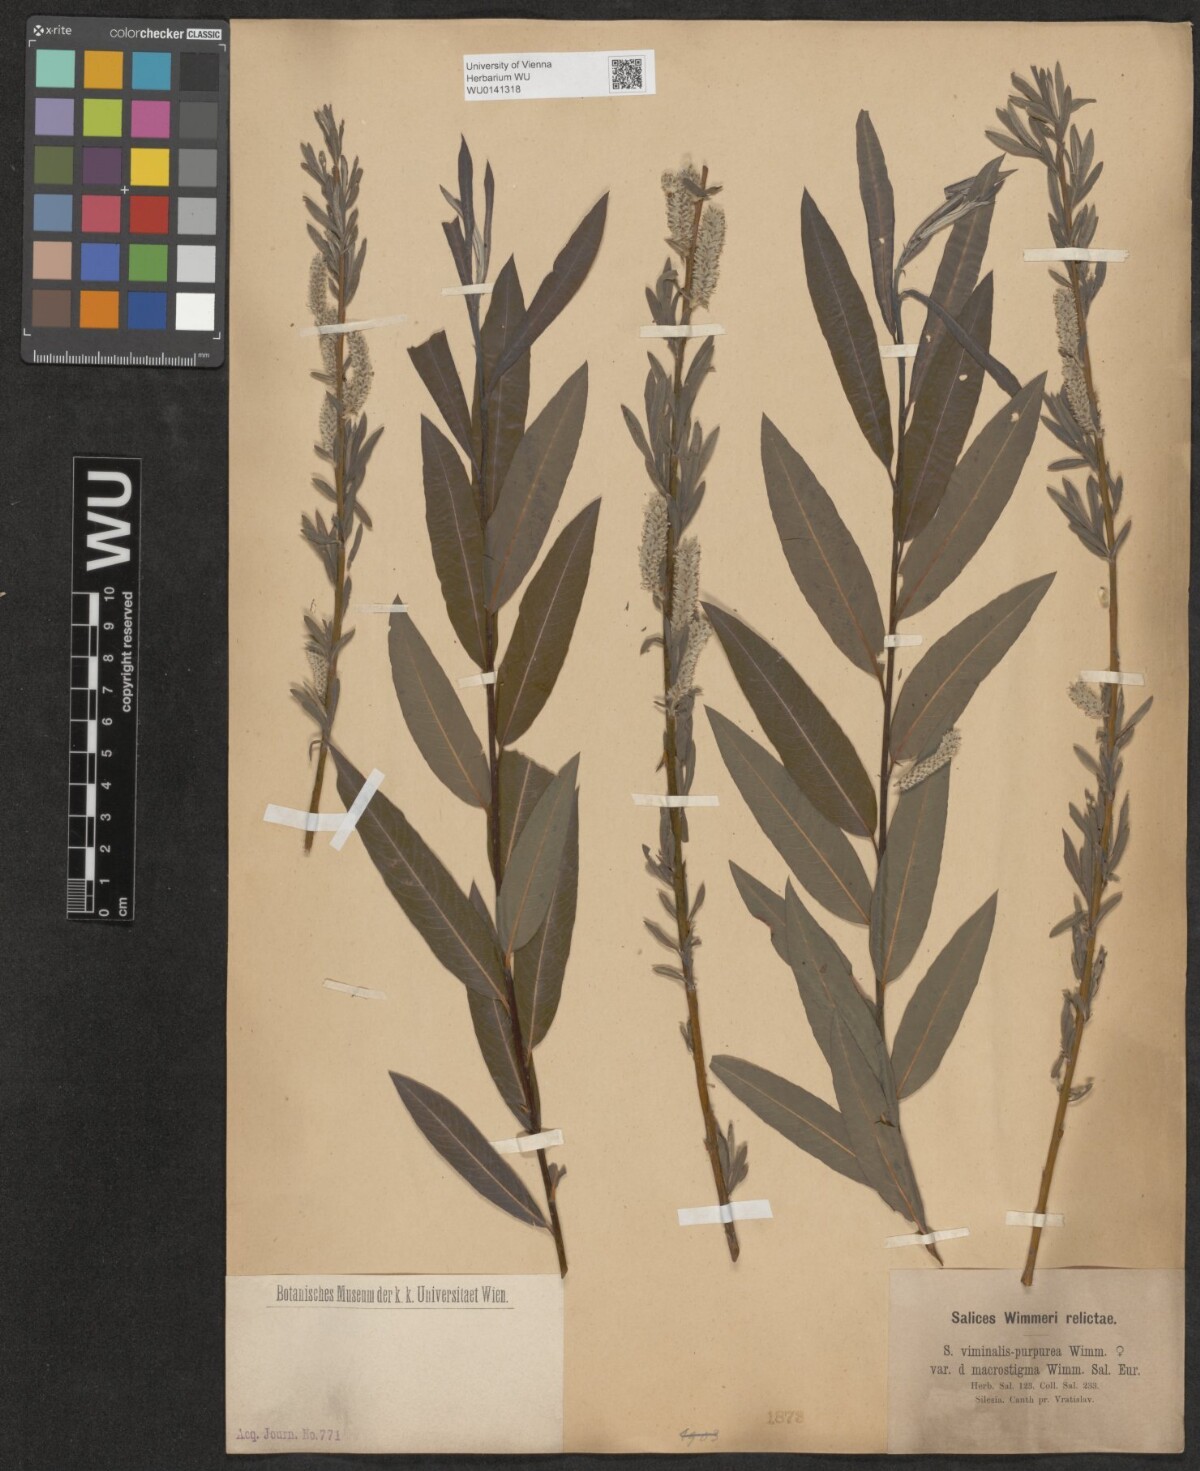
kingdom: Plantae
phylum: Tracheophyta
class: Magnoliopsida
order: Malpighiales
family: Salicaceae
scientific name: Salicaceae
